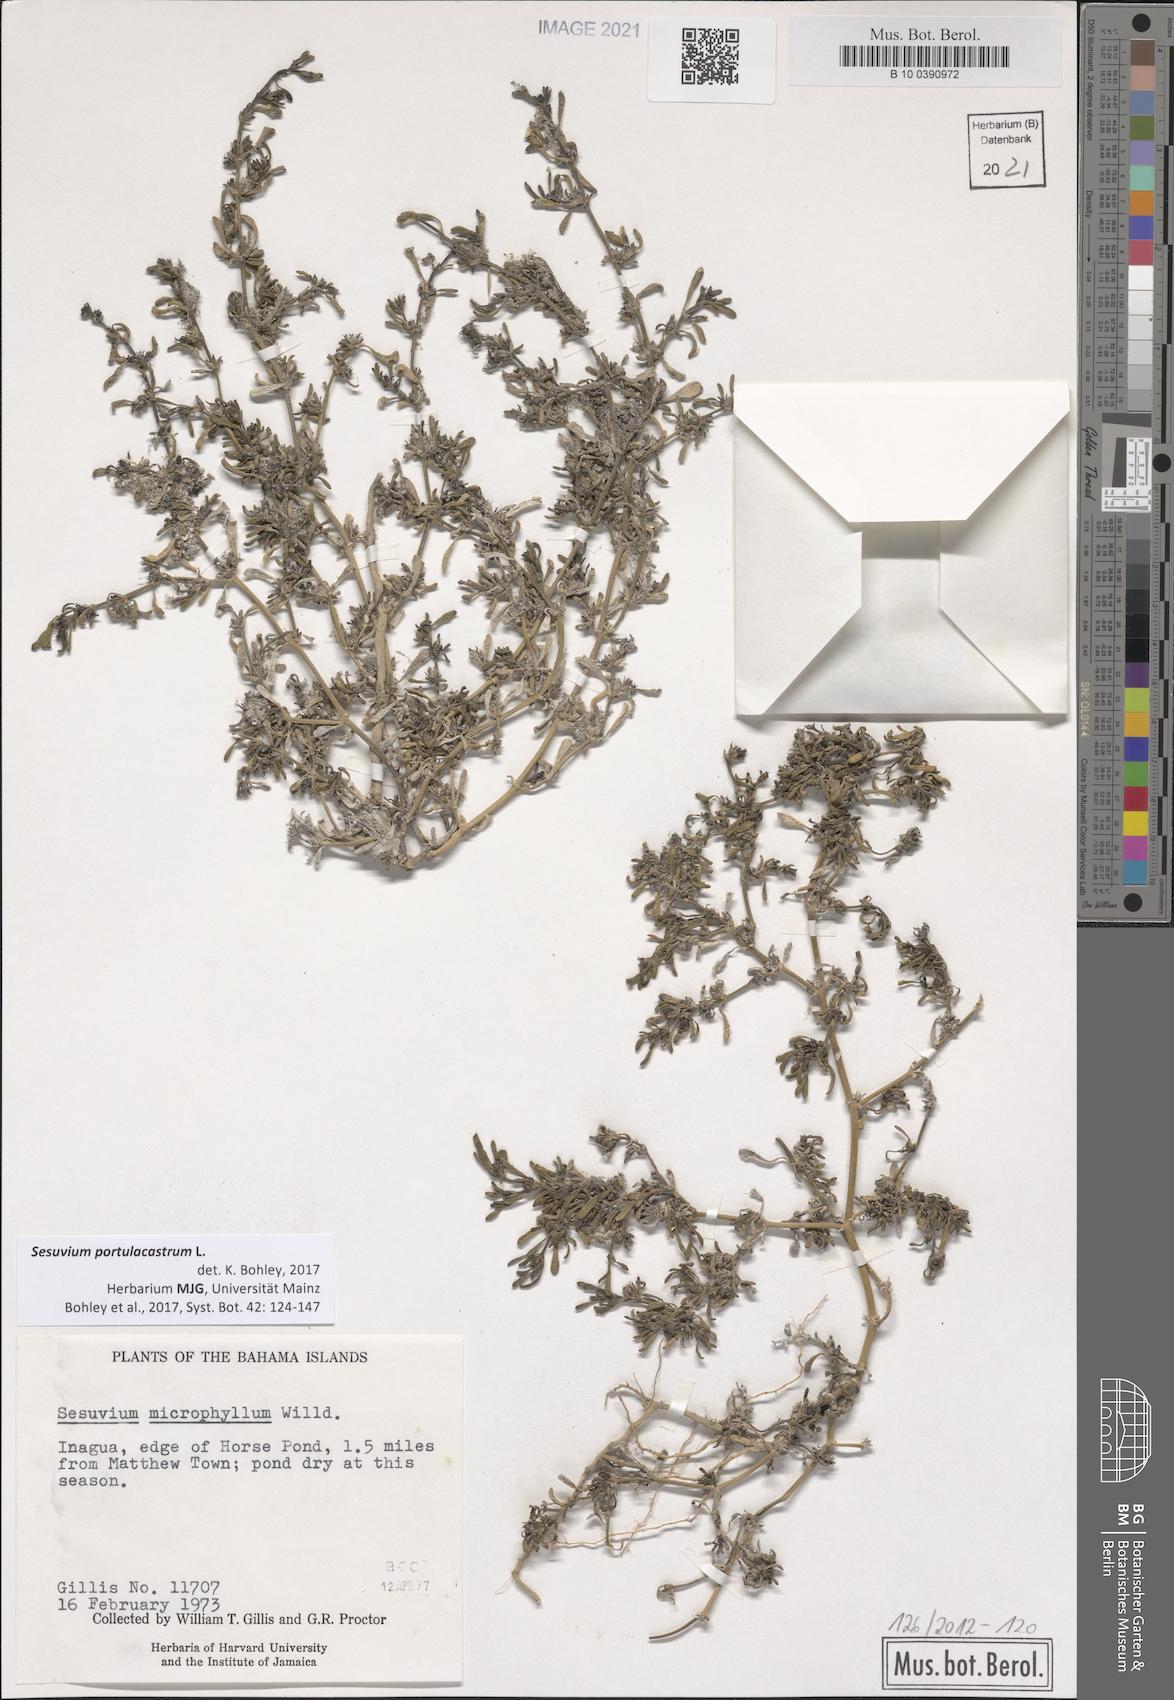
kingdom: Plantae
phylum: Tracheophyta
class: Magnoliopsida
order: Caryophyllales
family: Aizoaceae
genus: Sesuvium
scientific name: Sesuvium portulacastrum
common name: Sea-purslane
